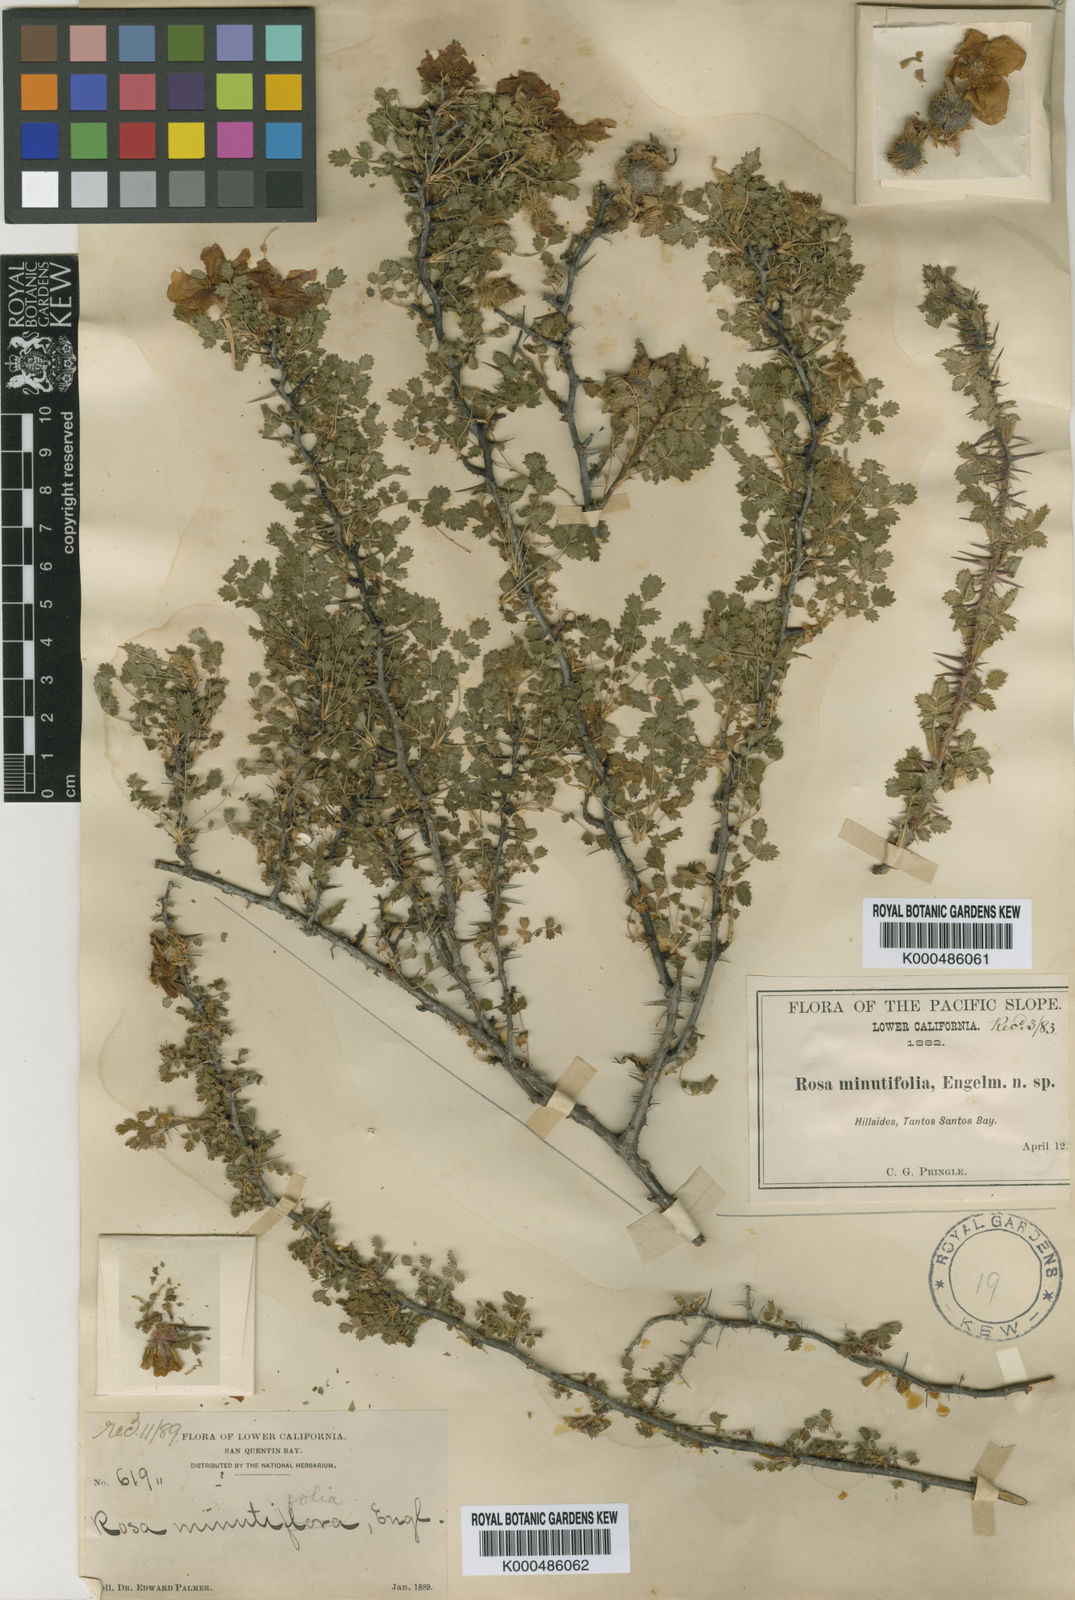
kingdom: Plantae
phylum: Tracheophyta
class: Magnoliopsida
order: Rosales
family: Rosaceae
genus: Rosa
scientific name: Rosa minutifolia
